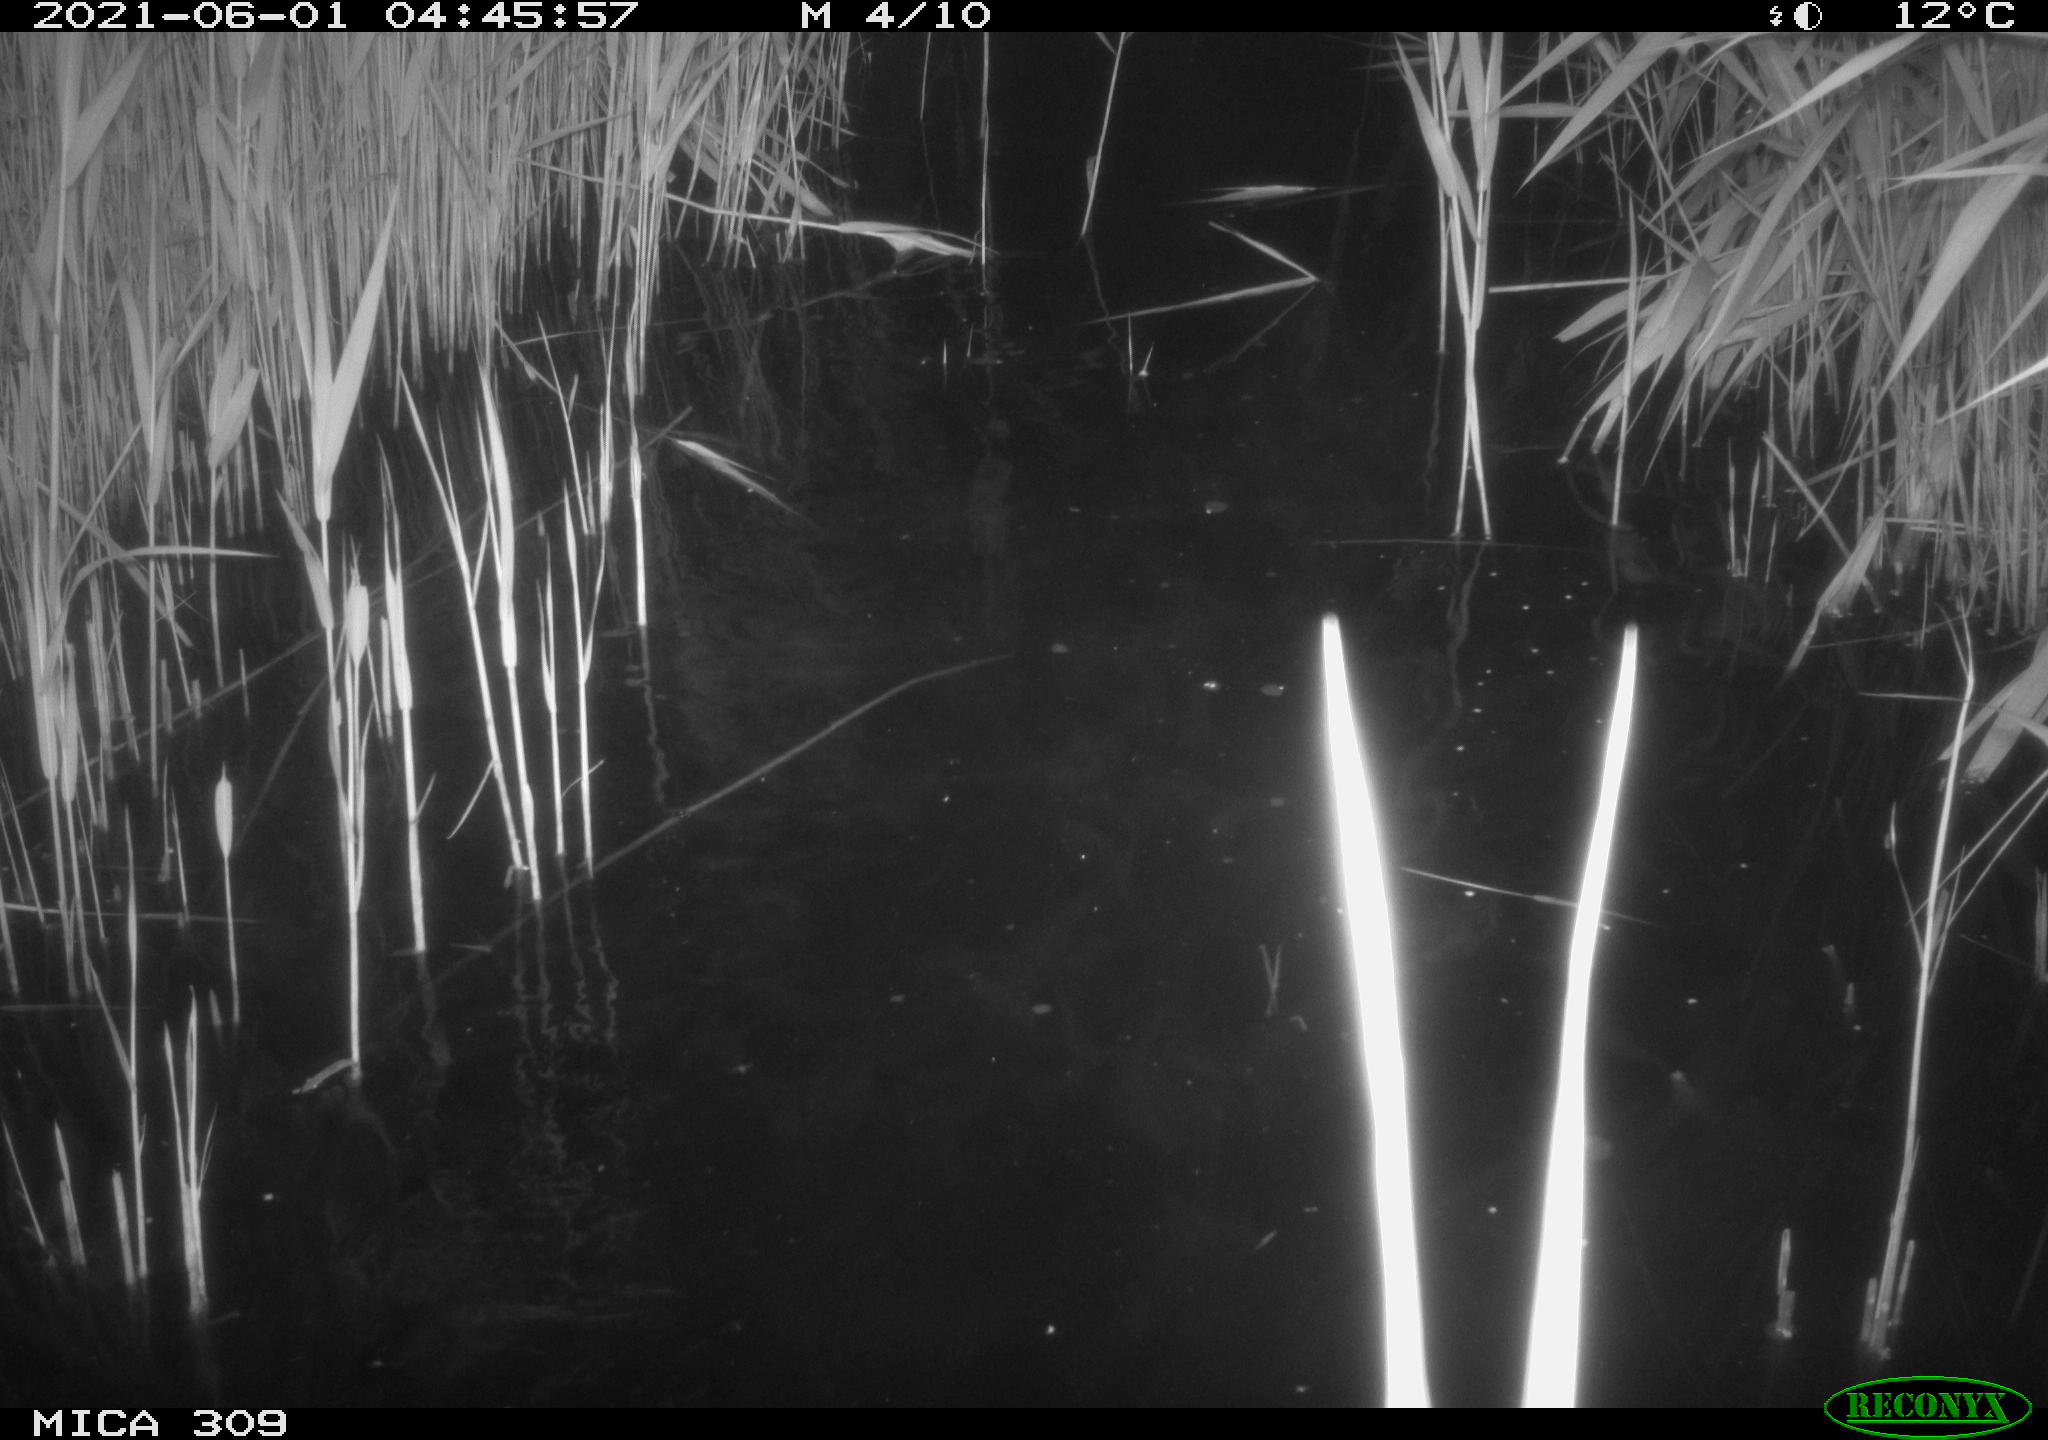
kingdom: Animalia
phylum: Chordata
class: Mammalia
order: Rodentia
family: Cricetidae
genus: Ondatra
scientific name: Ondatra zibethicus
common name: Muskrat
